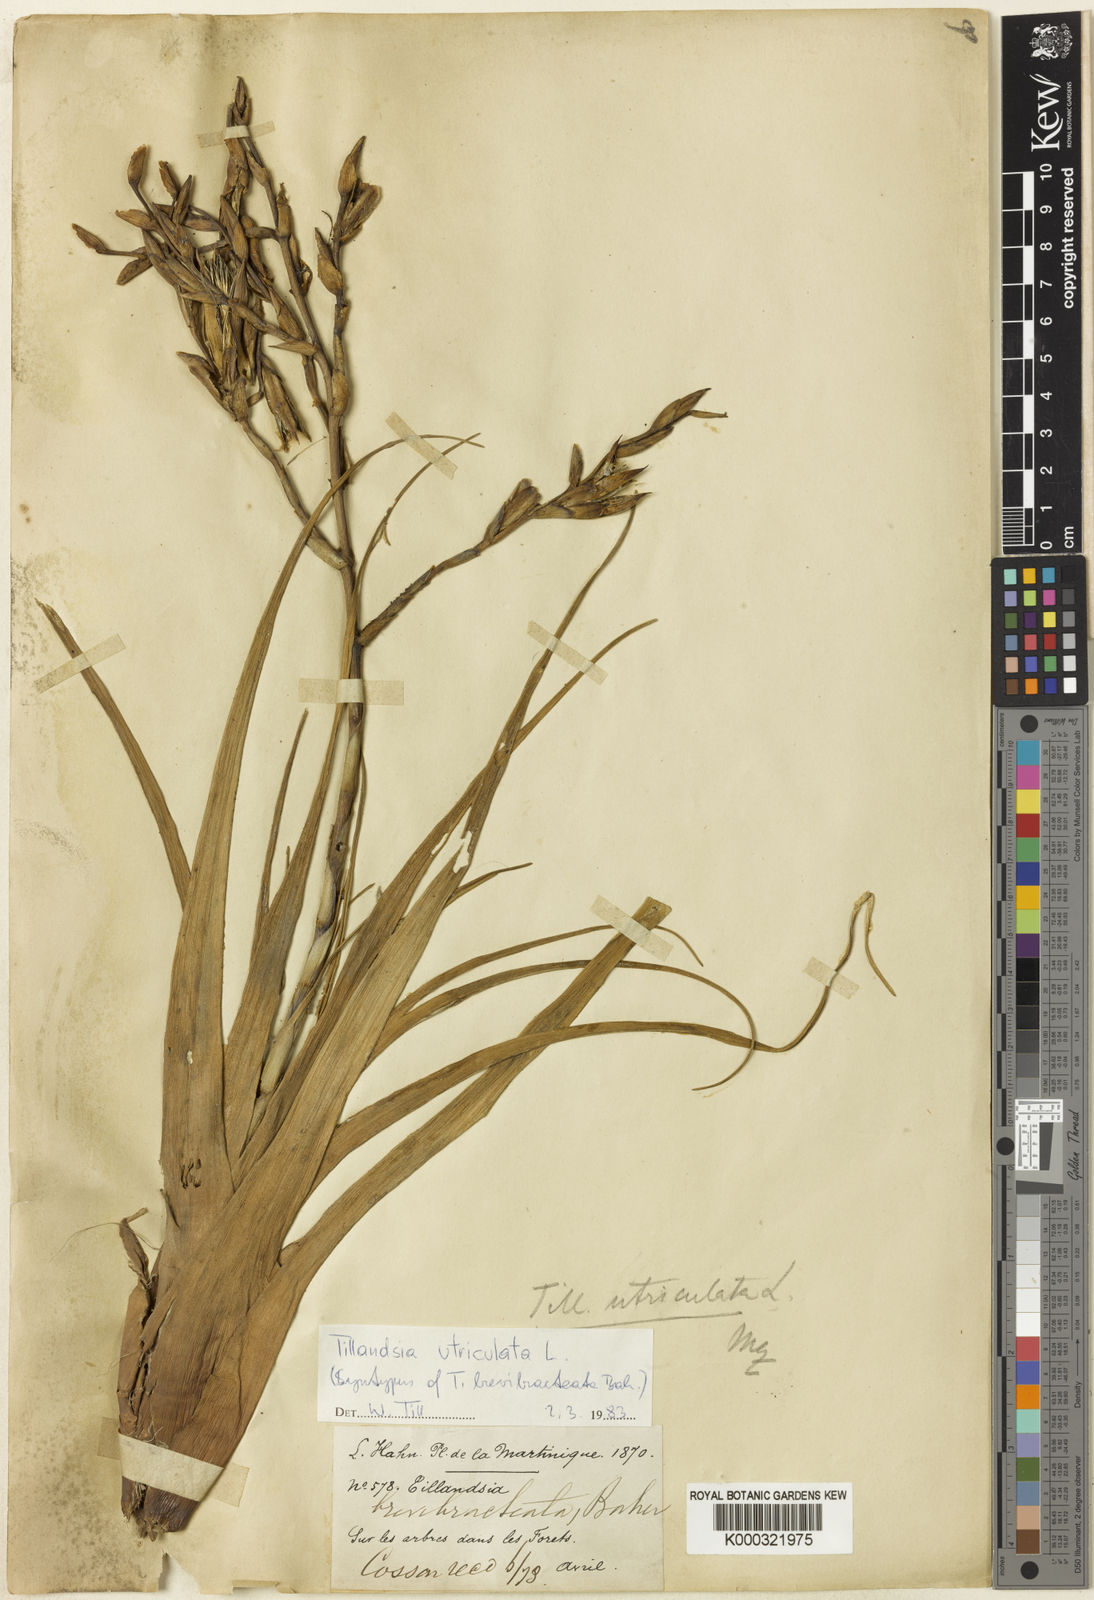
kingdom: Plantae
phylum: Tracheophyta
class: Liliopsida
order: Poales
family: Bromeliaceae
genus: Tillandsia
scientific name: Tillandsia utriculata
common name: Wild pine
